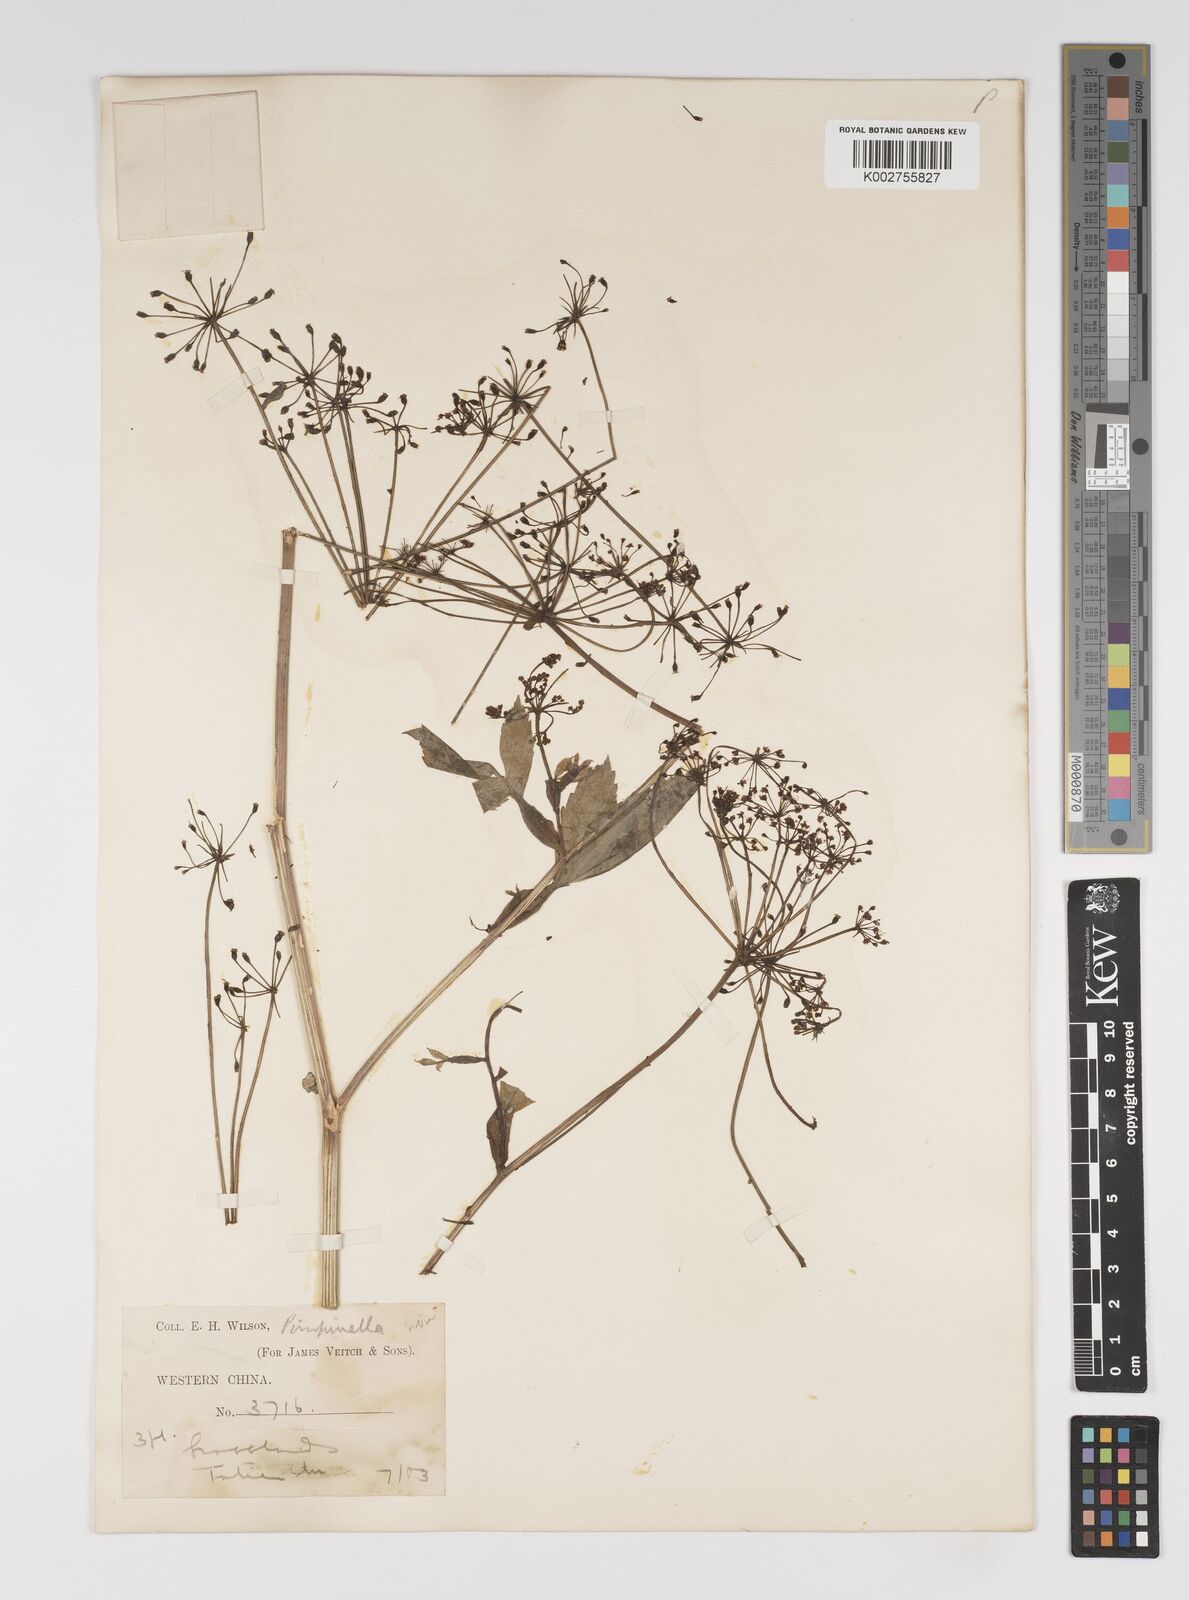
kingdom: Plantae
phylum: Tracheophyta
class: Magnoliopsida
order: Apiales
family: Apiaceae
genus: Pimpinella
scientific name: Pimpinella
